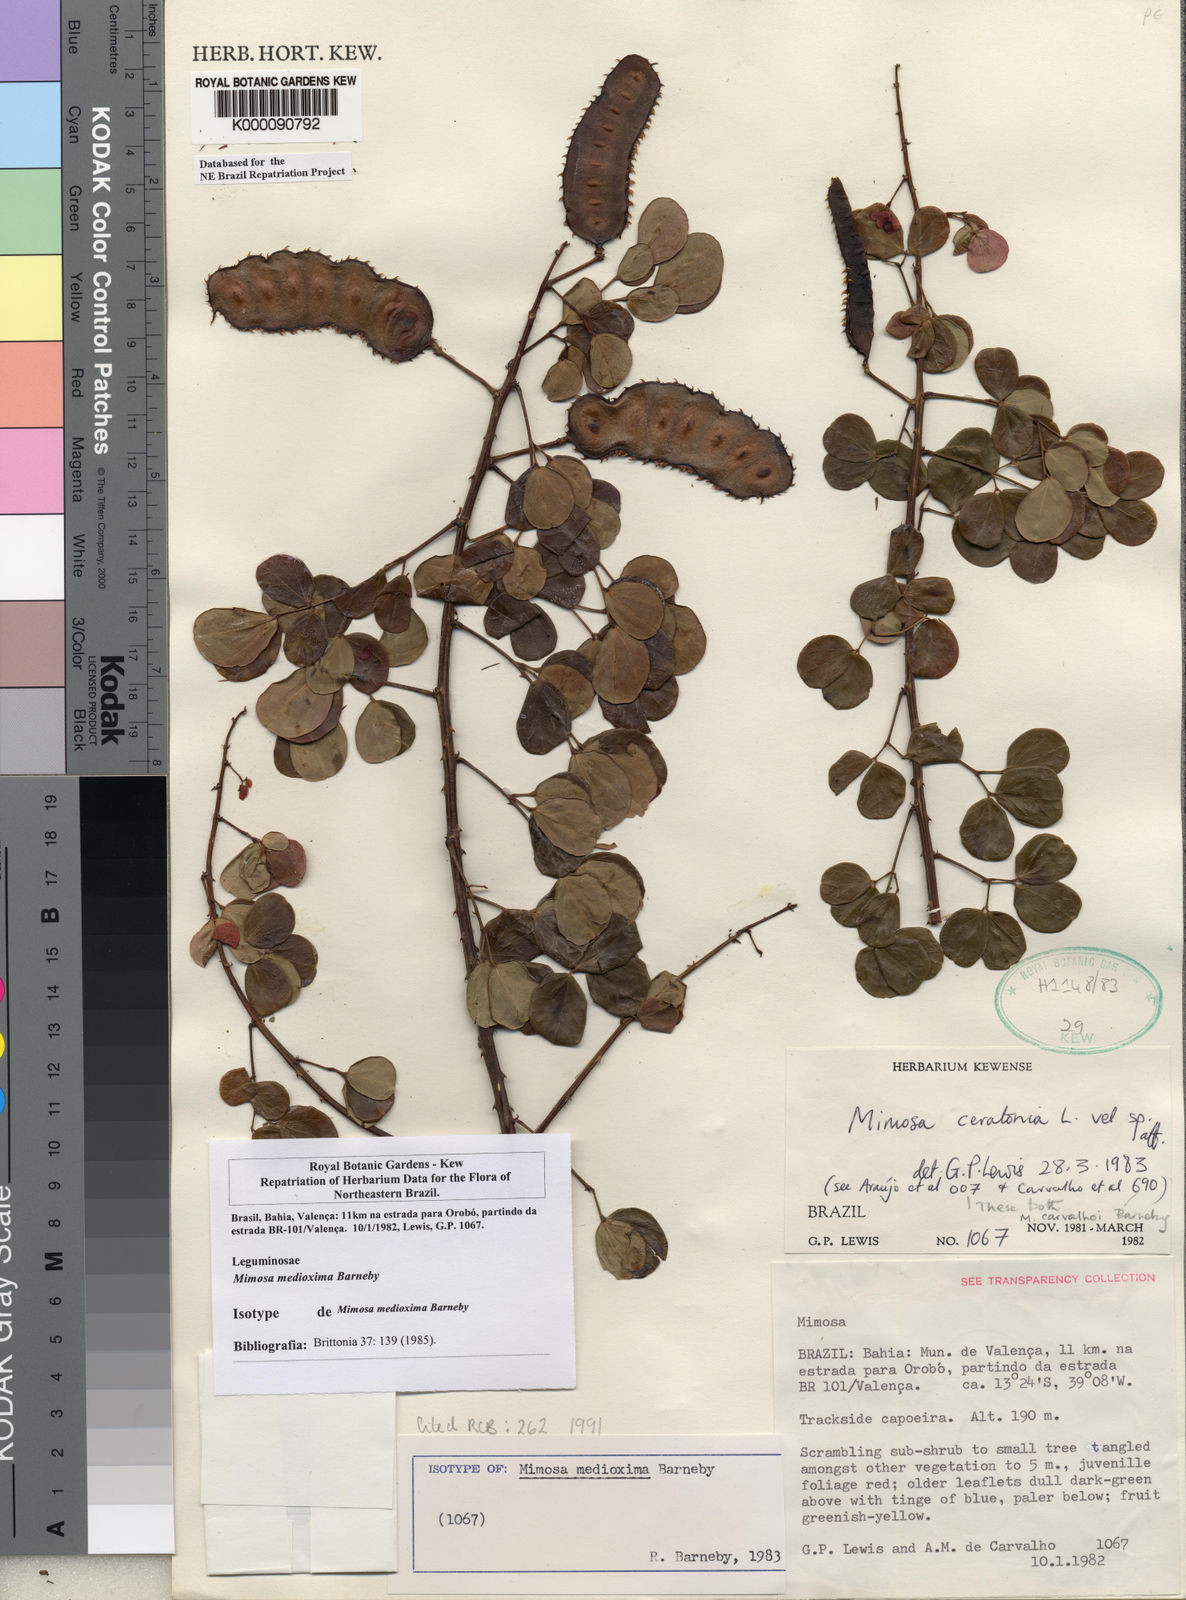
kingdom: Plantae
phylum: Tracheophyta
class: Magnoliopsida
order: Fabales
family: Fabaceae
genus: Mimosa
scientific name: Mimosa medioxima
